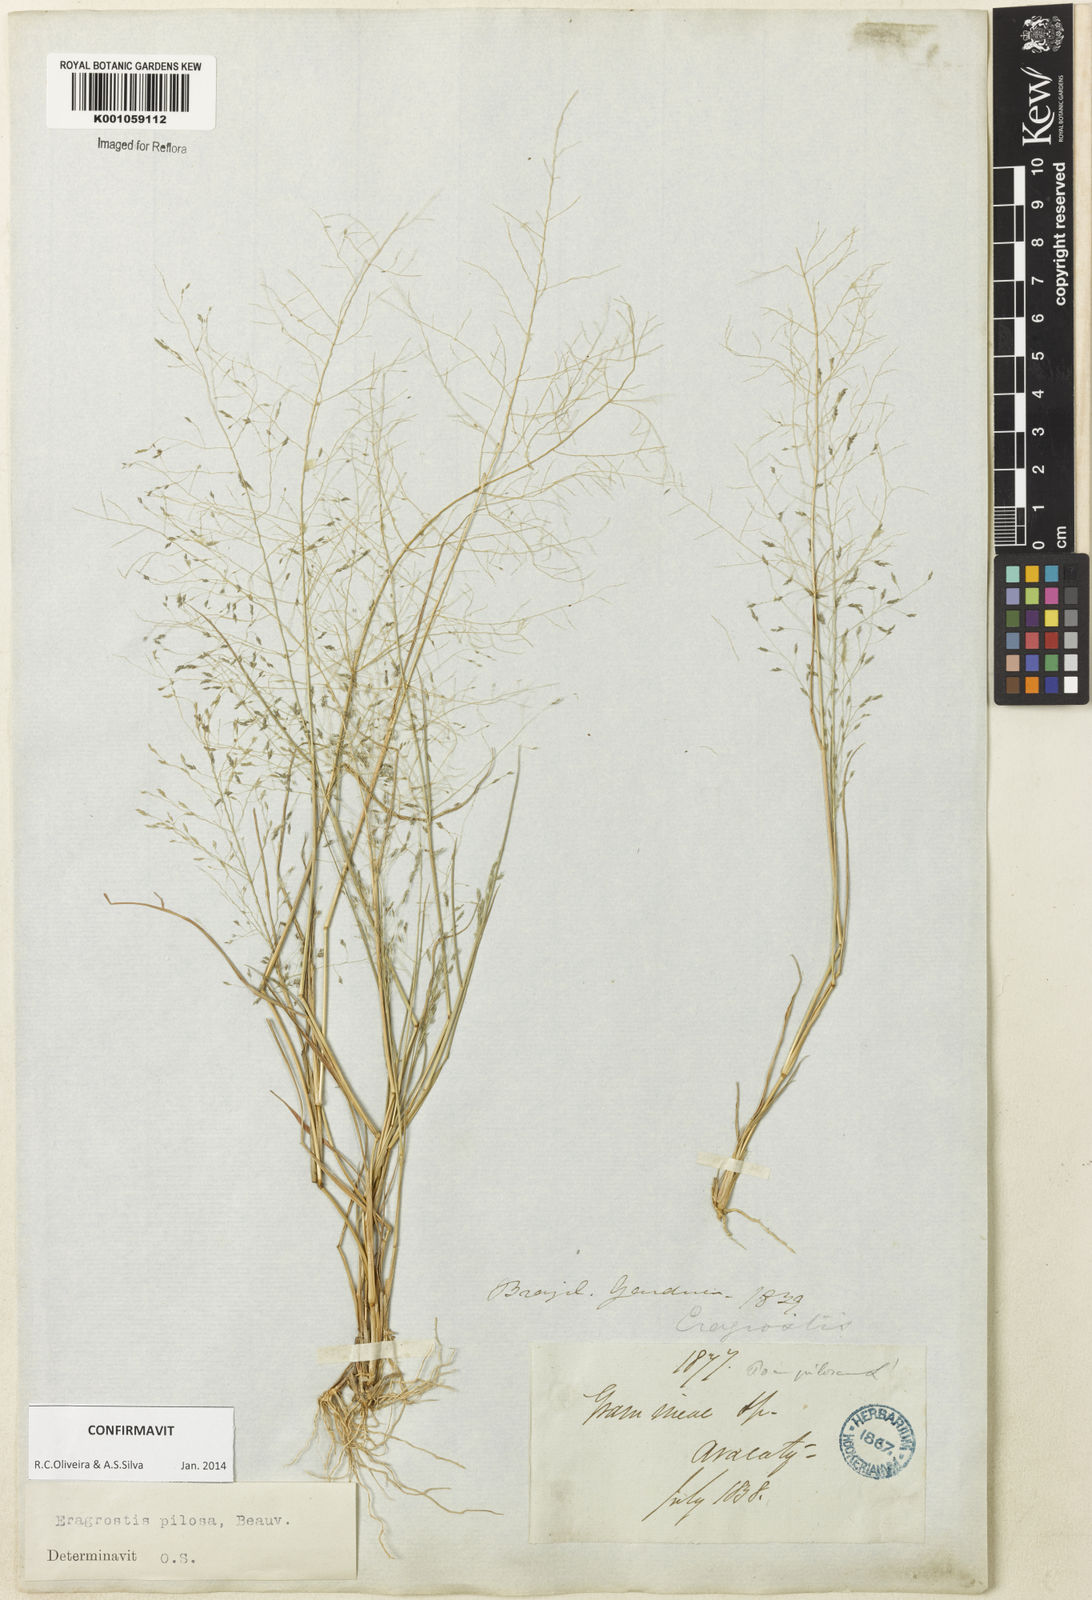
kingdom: Plantae
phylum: Tracheophyta
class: Liliopsida
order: Poales
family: Poaceae
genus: Eragrostis
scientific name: Eragrostis pilosa
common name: Indian lovegrass
